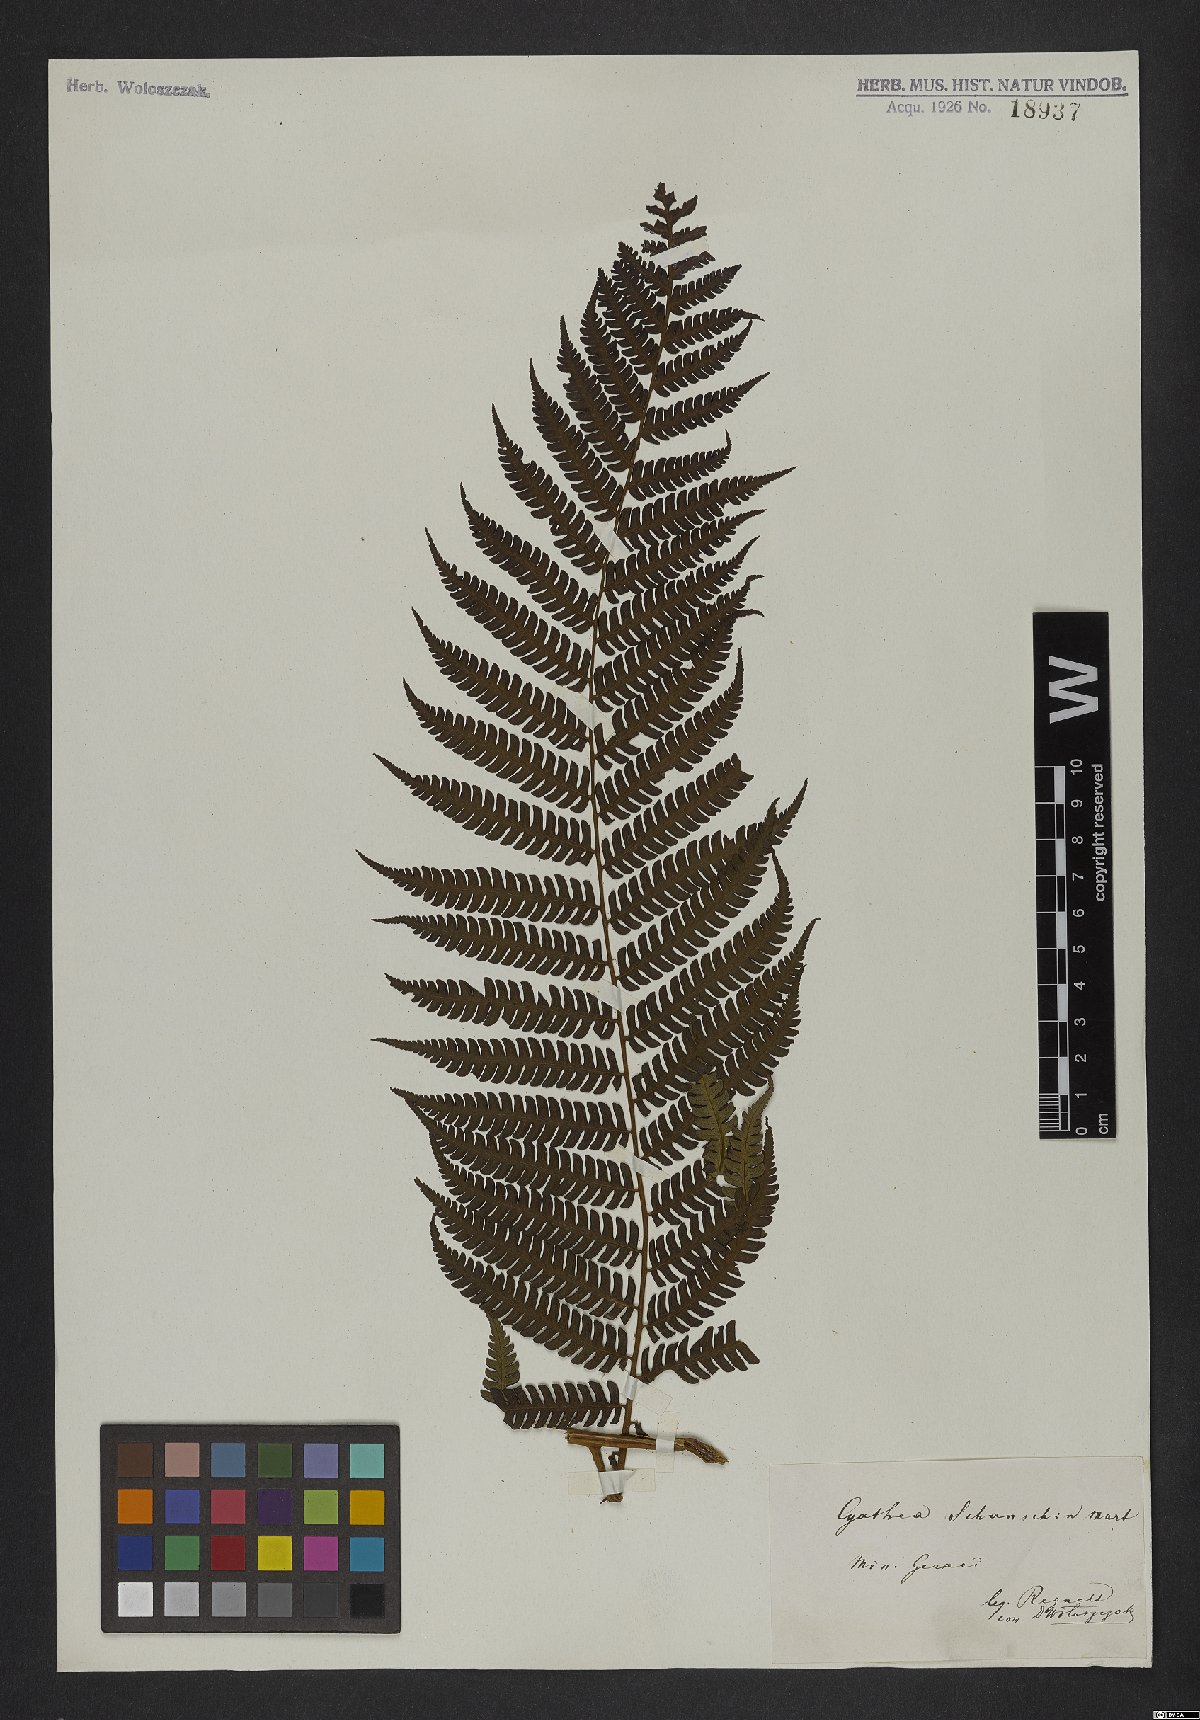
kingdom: Plantae
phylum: Tracheophyta
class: Polypodiopsida
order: Cyatheales
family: Cyatheaceae
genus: Cyathea
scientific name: Cyathea delgadii
